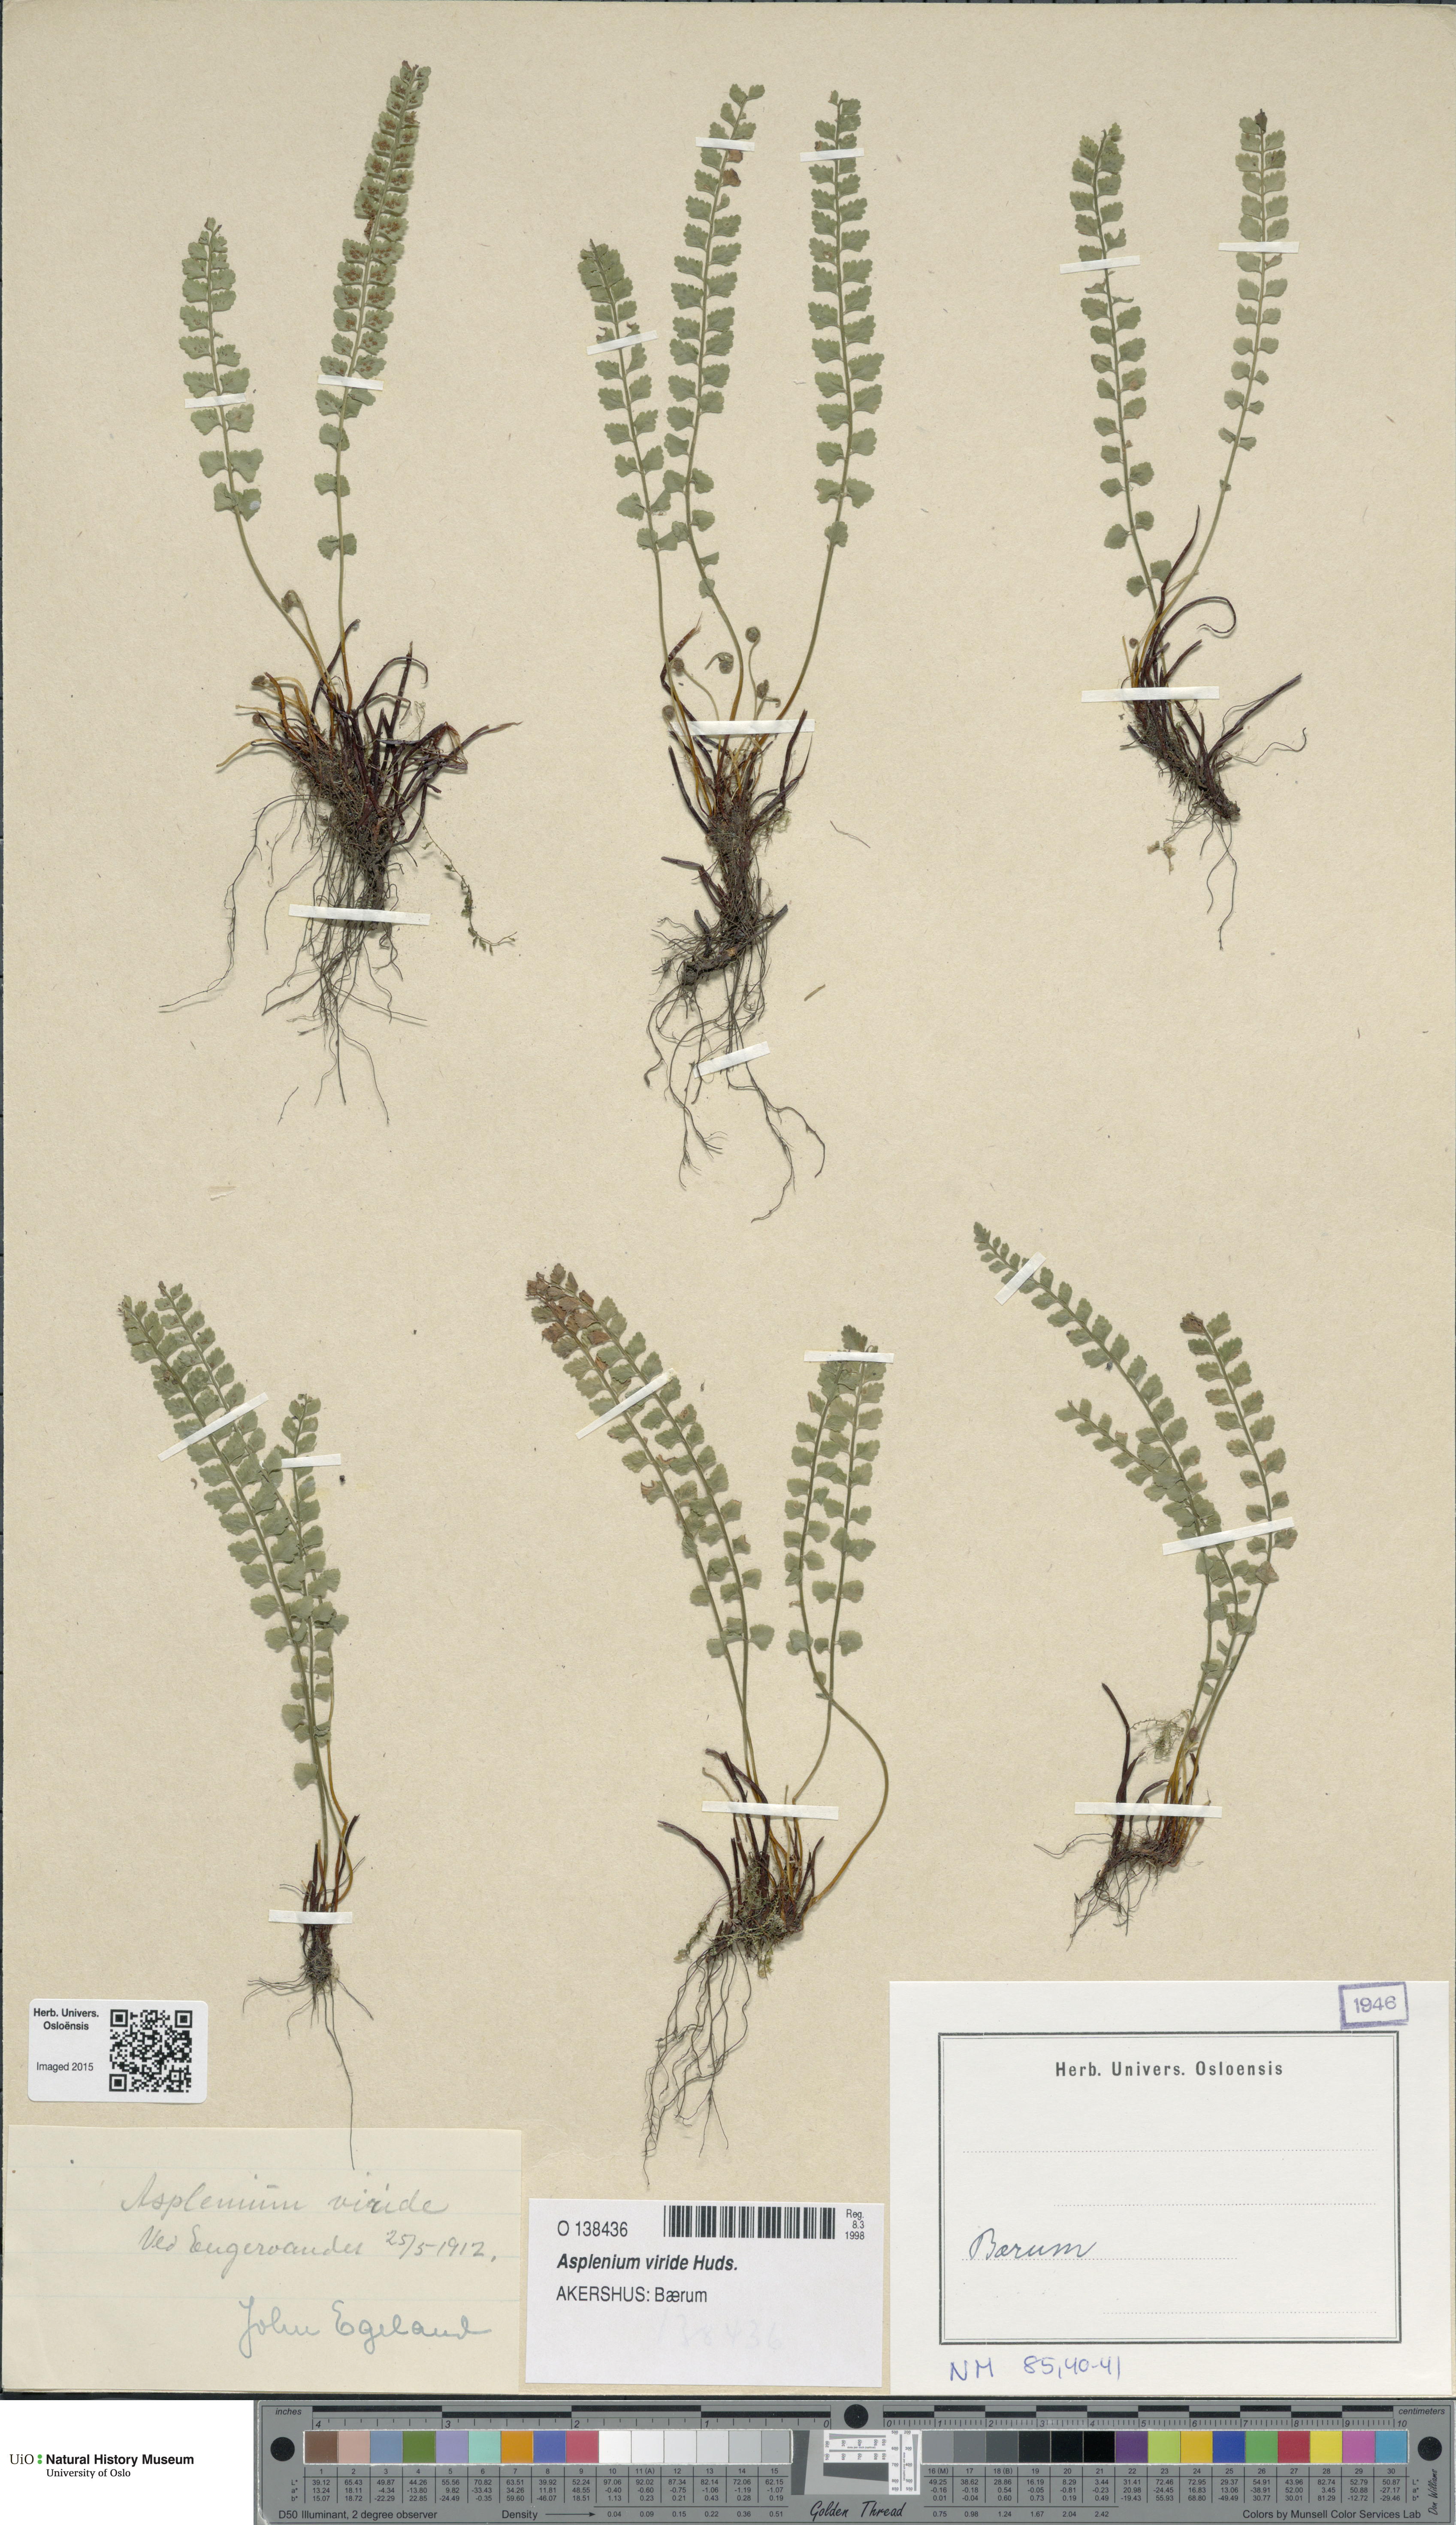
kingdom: Plantae
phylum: Tracheophyta
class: Polypodiopsida
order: Polypodiales
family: Aspleniaceae
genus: Asplenium
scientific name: Asplenium viride
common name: Green spleenwort
